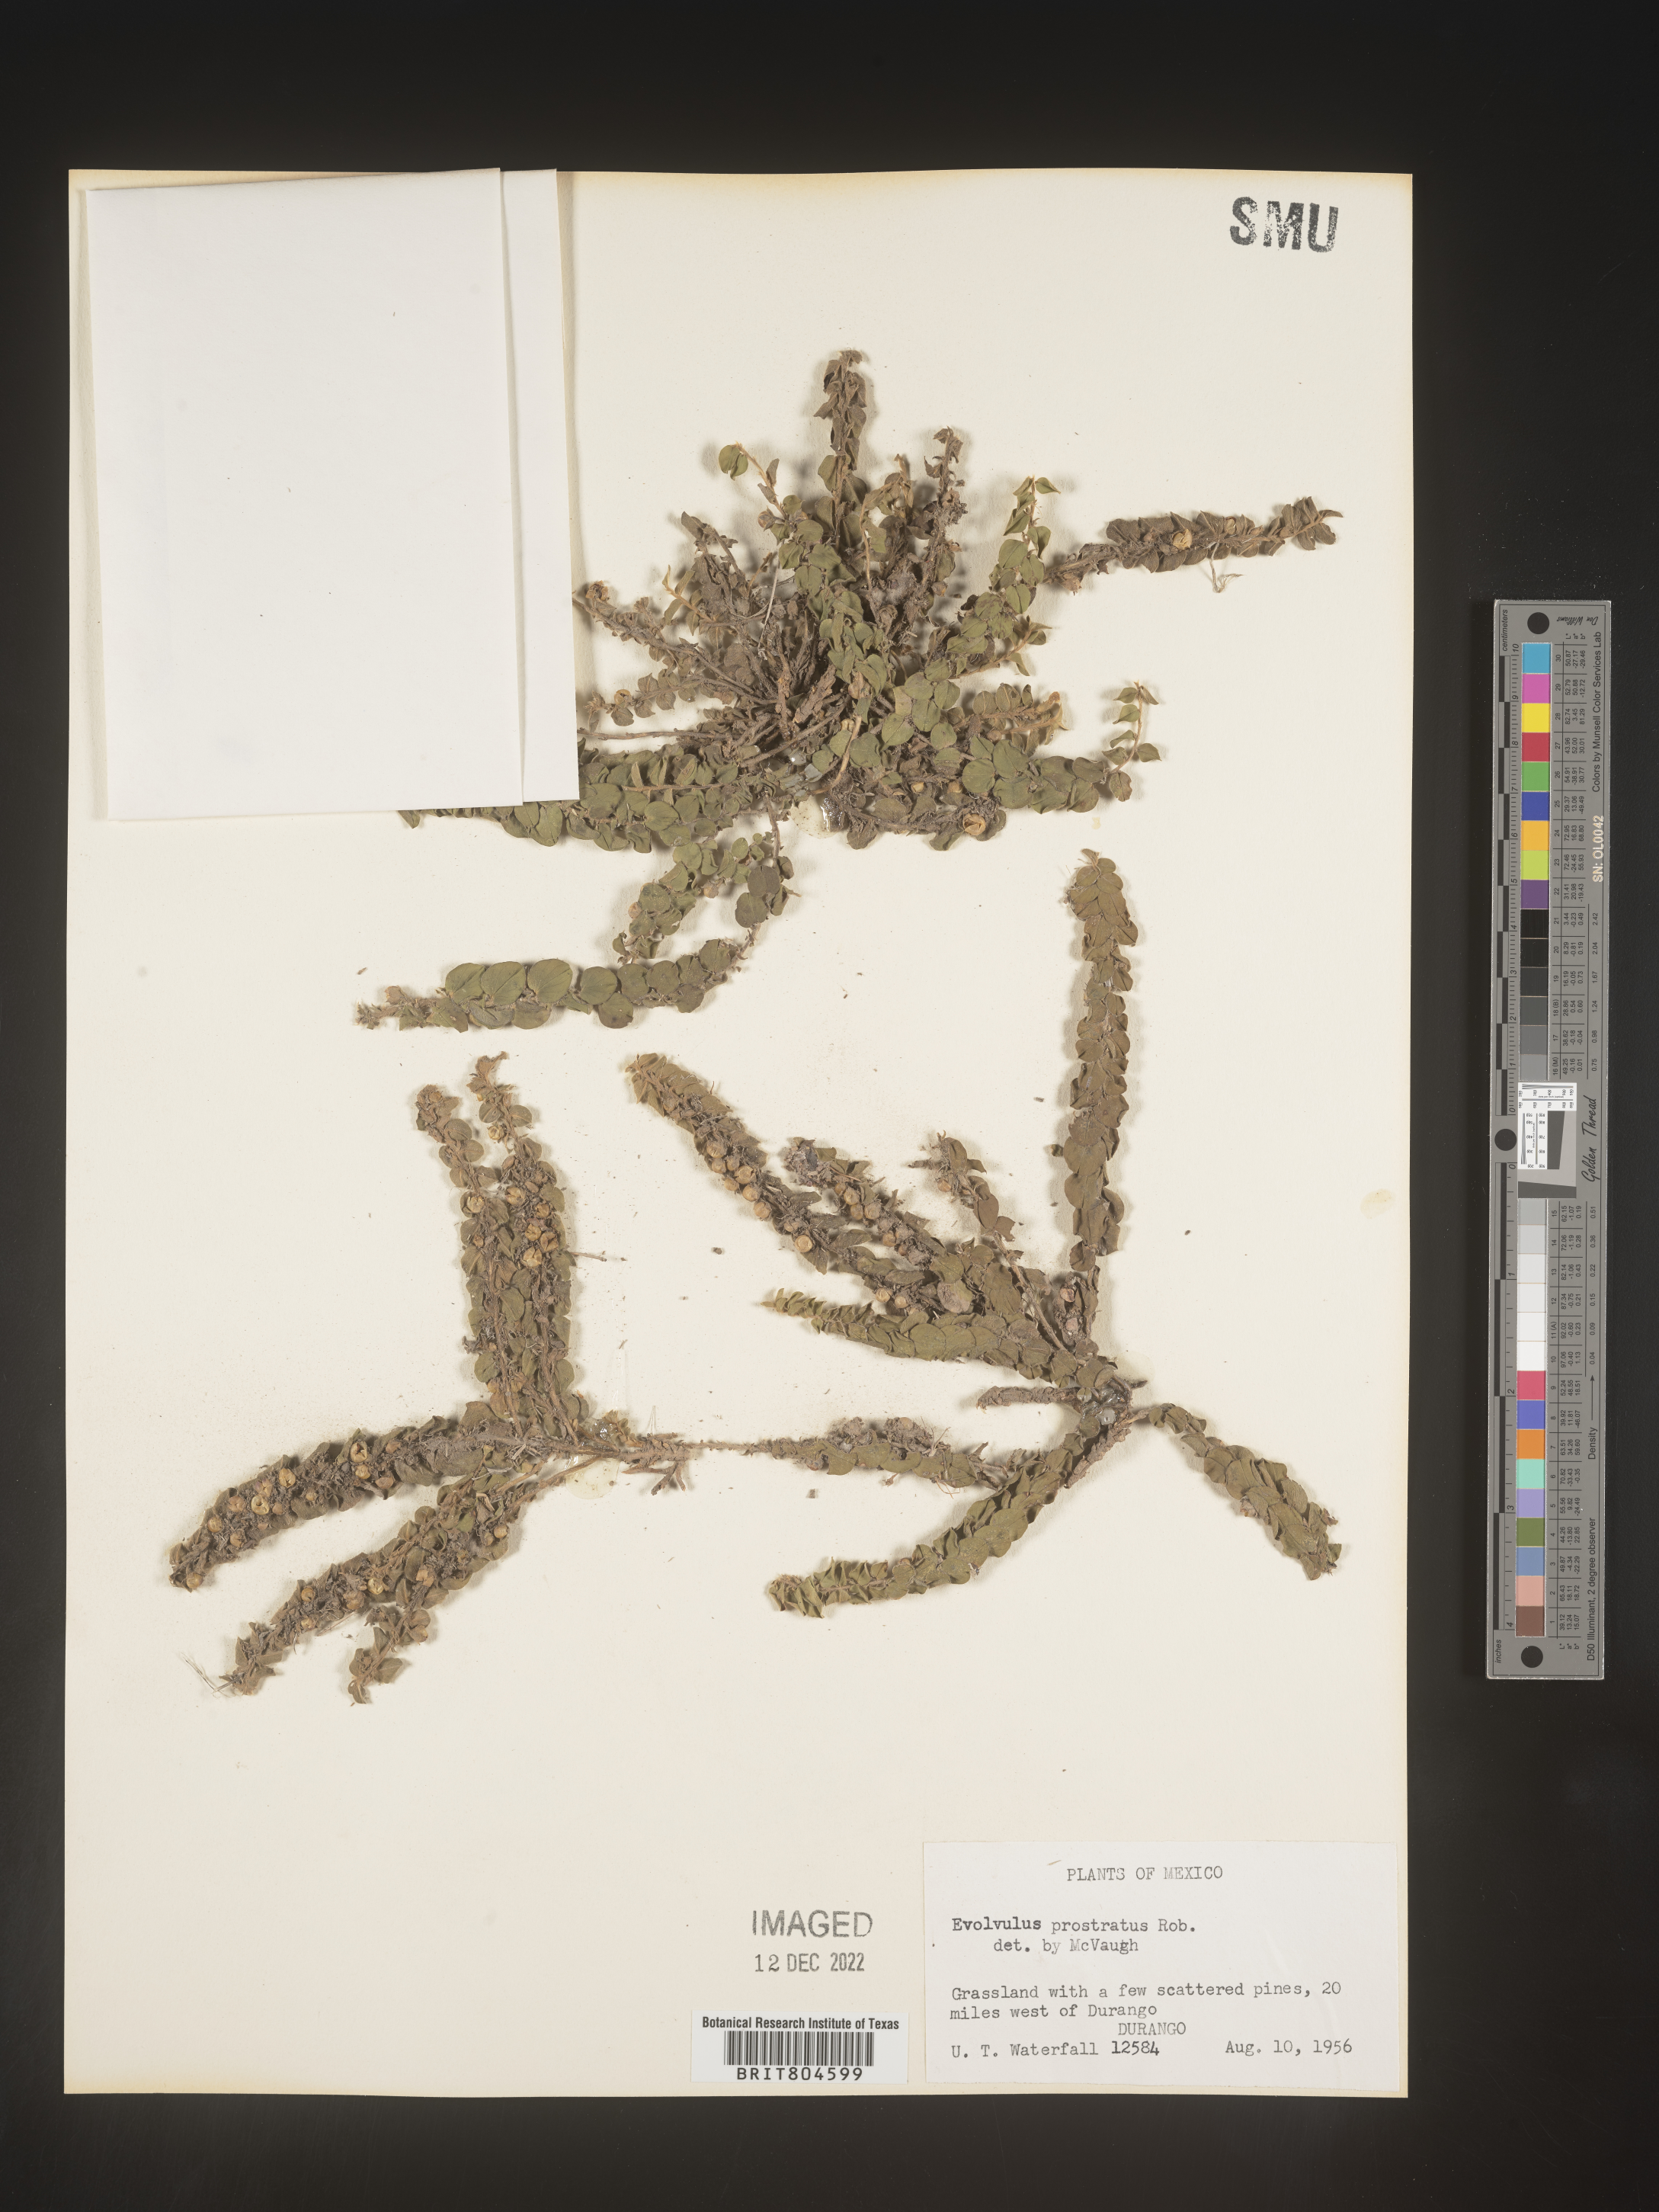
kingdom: Plantae
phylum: Tracheophyta
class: Magnoliopsida
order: Solanales
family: Convolvulaceae
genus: Evolvulus
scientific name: Evolvulus
